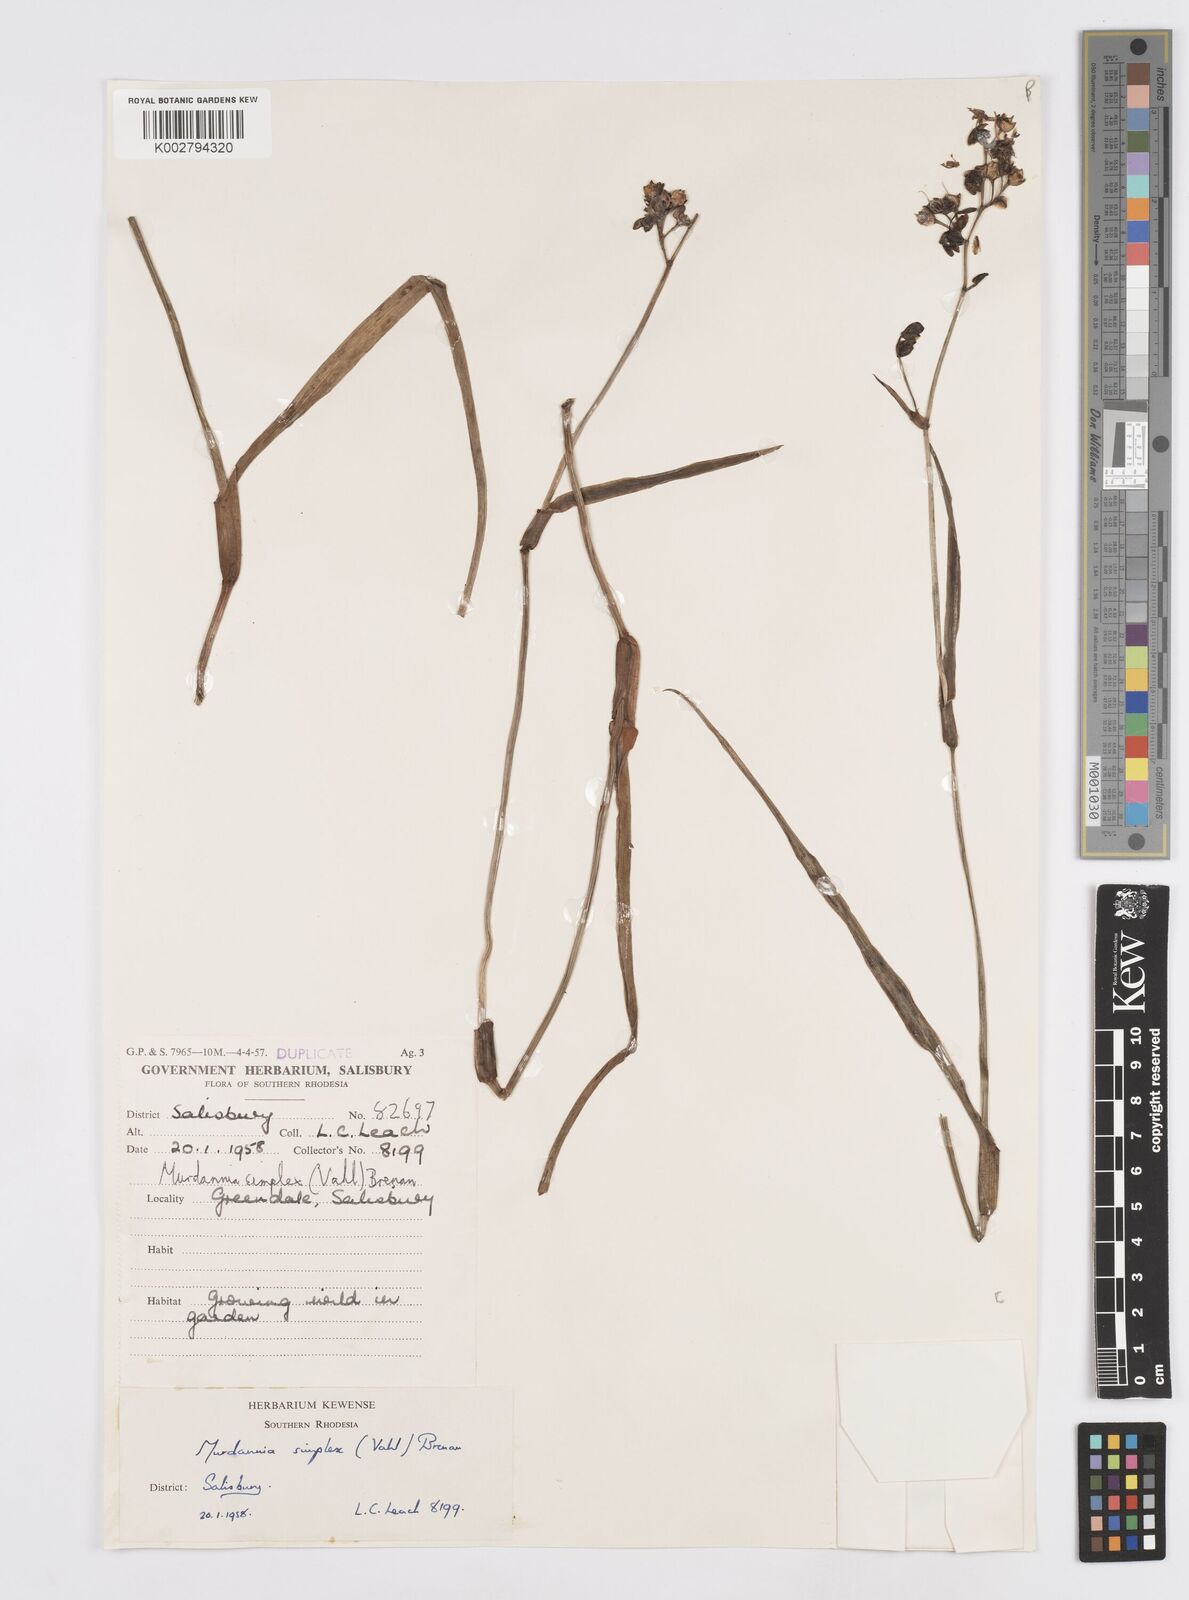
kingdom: Plantae
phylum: Tracheophyta
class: Liliopsida
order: Commelinales
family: Commelinaceae
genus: Murdannia
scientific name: Murdannia simplex
